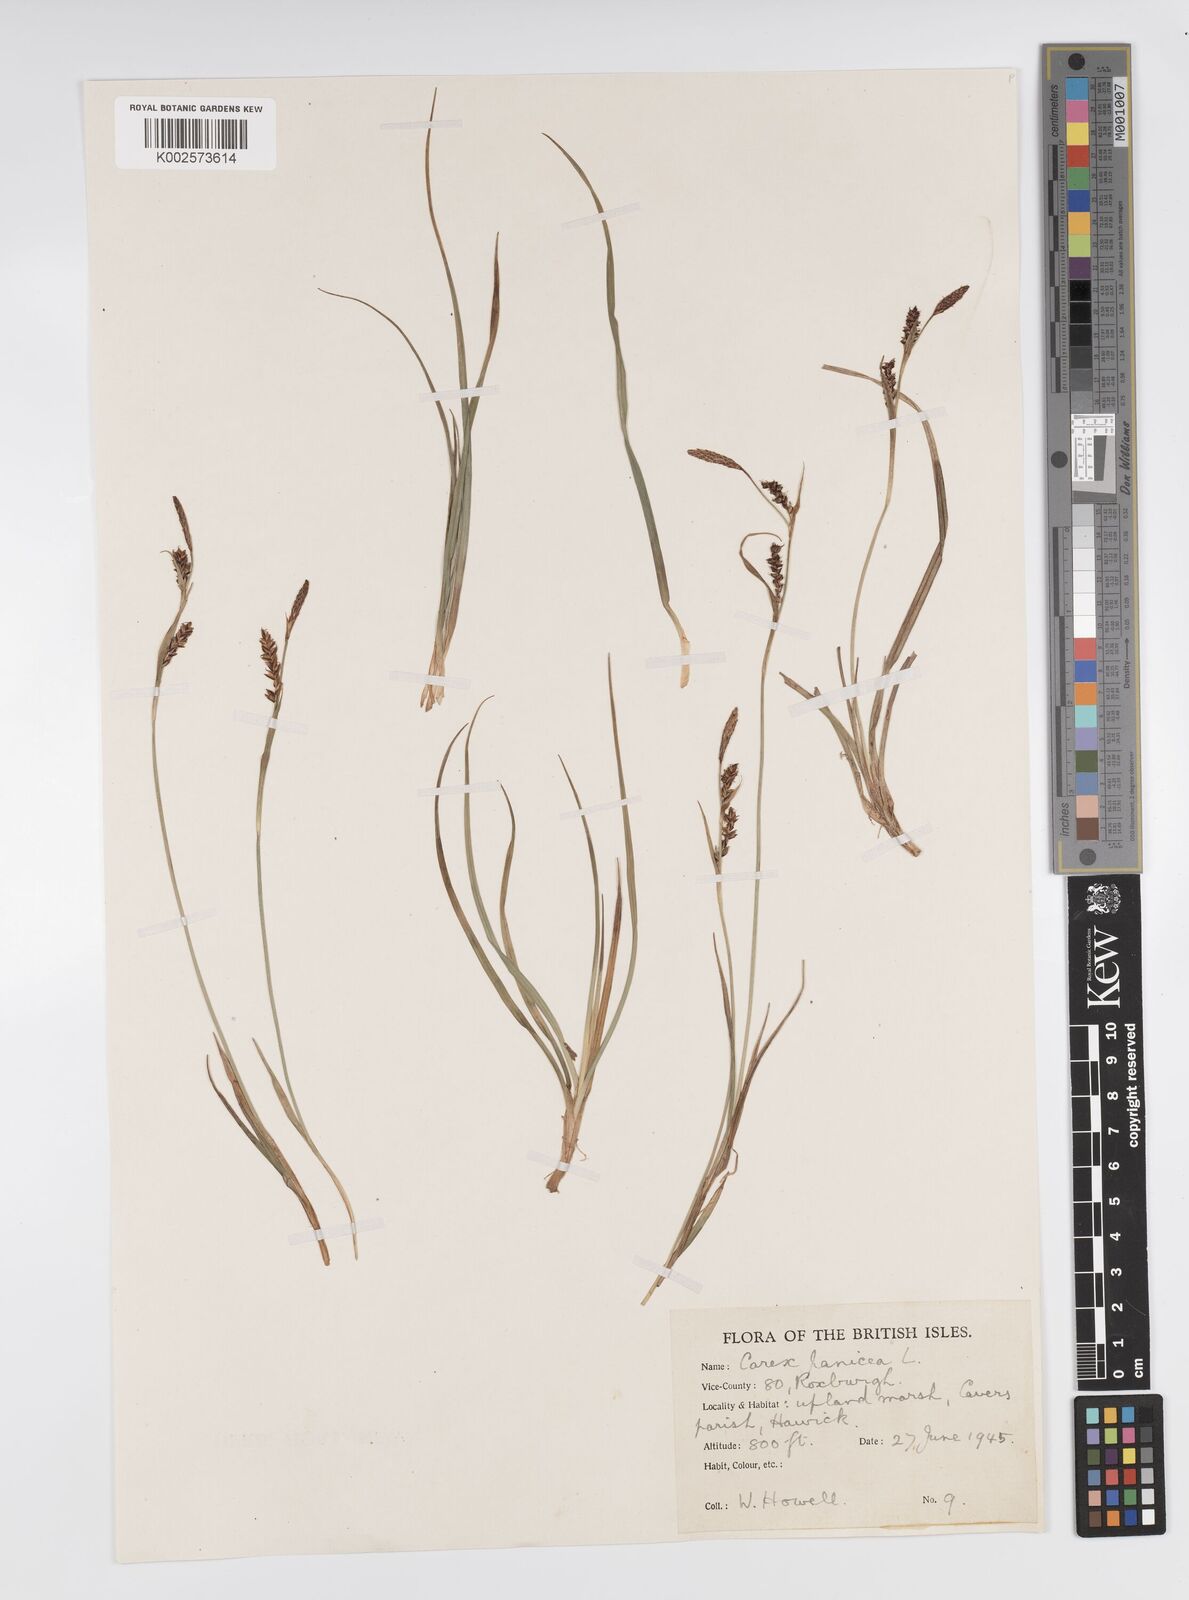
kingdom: Plantae
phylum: Tracheophyta
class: Liliopsida
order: Poales
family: Cyperaceae
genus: Carex
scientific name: Carex panicea
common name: Carnation sedge
